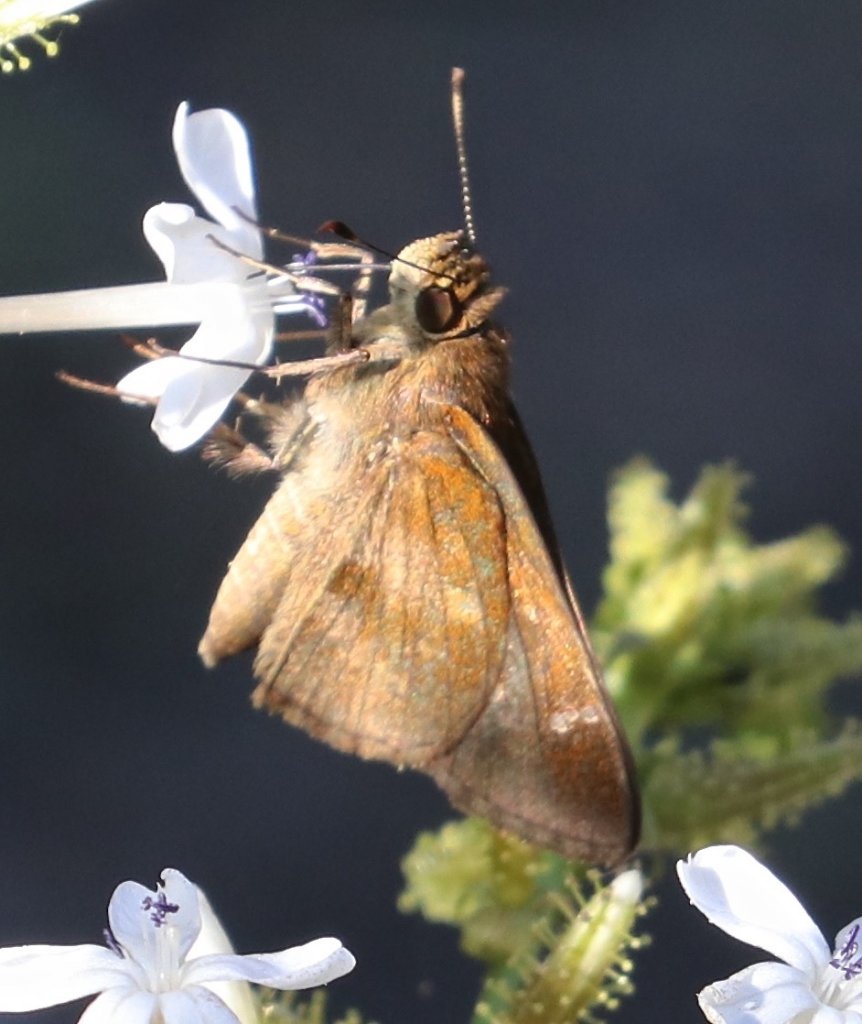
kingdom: Animalia
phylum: Arthropoda
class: Insecta
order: Lepidoptera
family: Hesperiidae
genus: Cymaenes
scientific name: Cymaenes odilia
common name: Fawn-spotted Skipper
